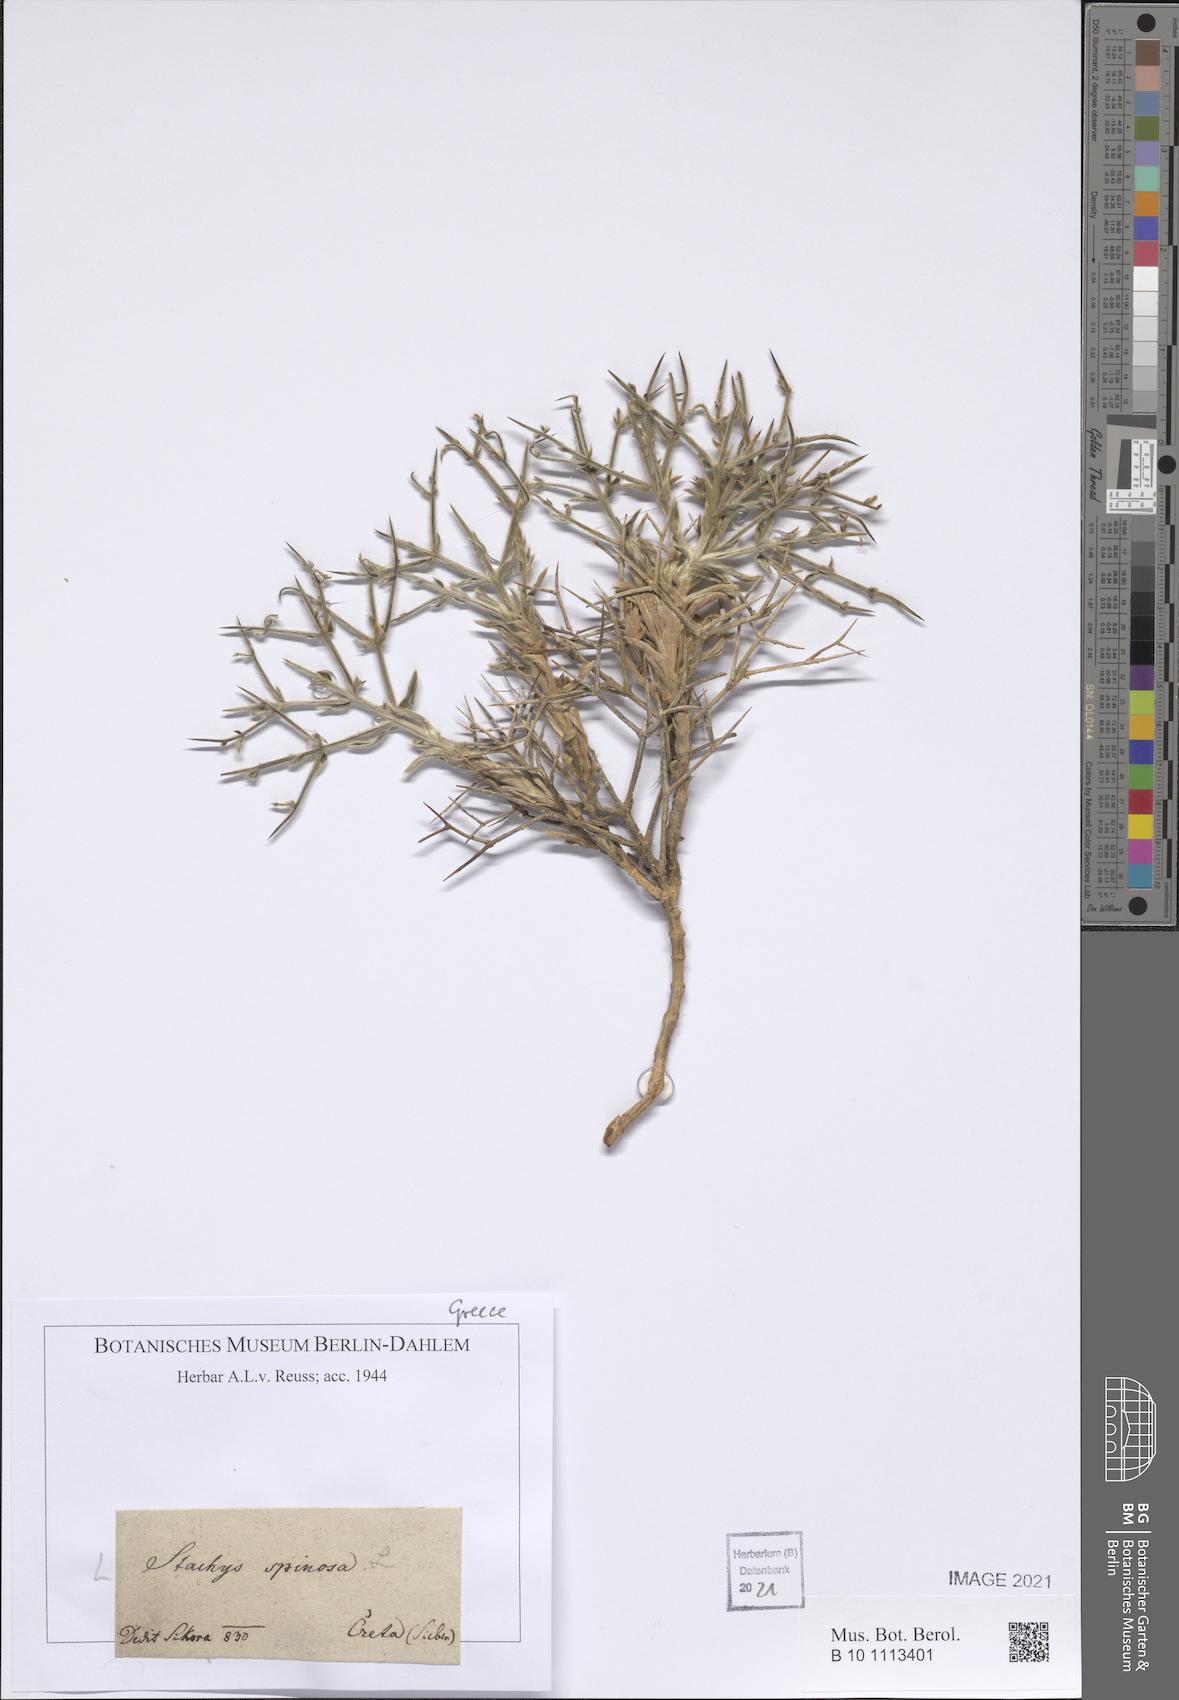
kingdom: Plantae
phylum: Tracheophyta
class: Magnoliopsida
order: Lamiales
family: Lamiaceae
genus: Stachys
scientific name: Stachys spinosa
